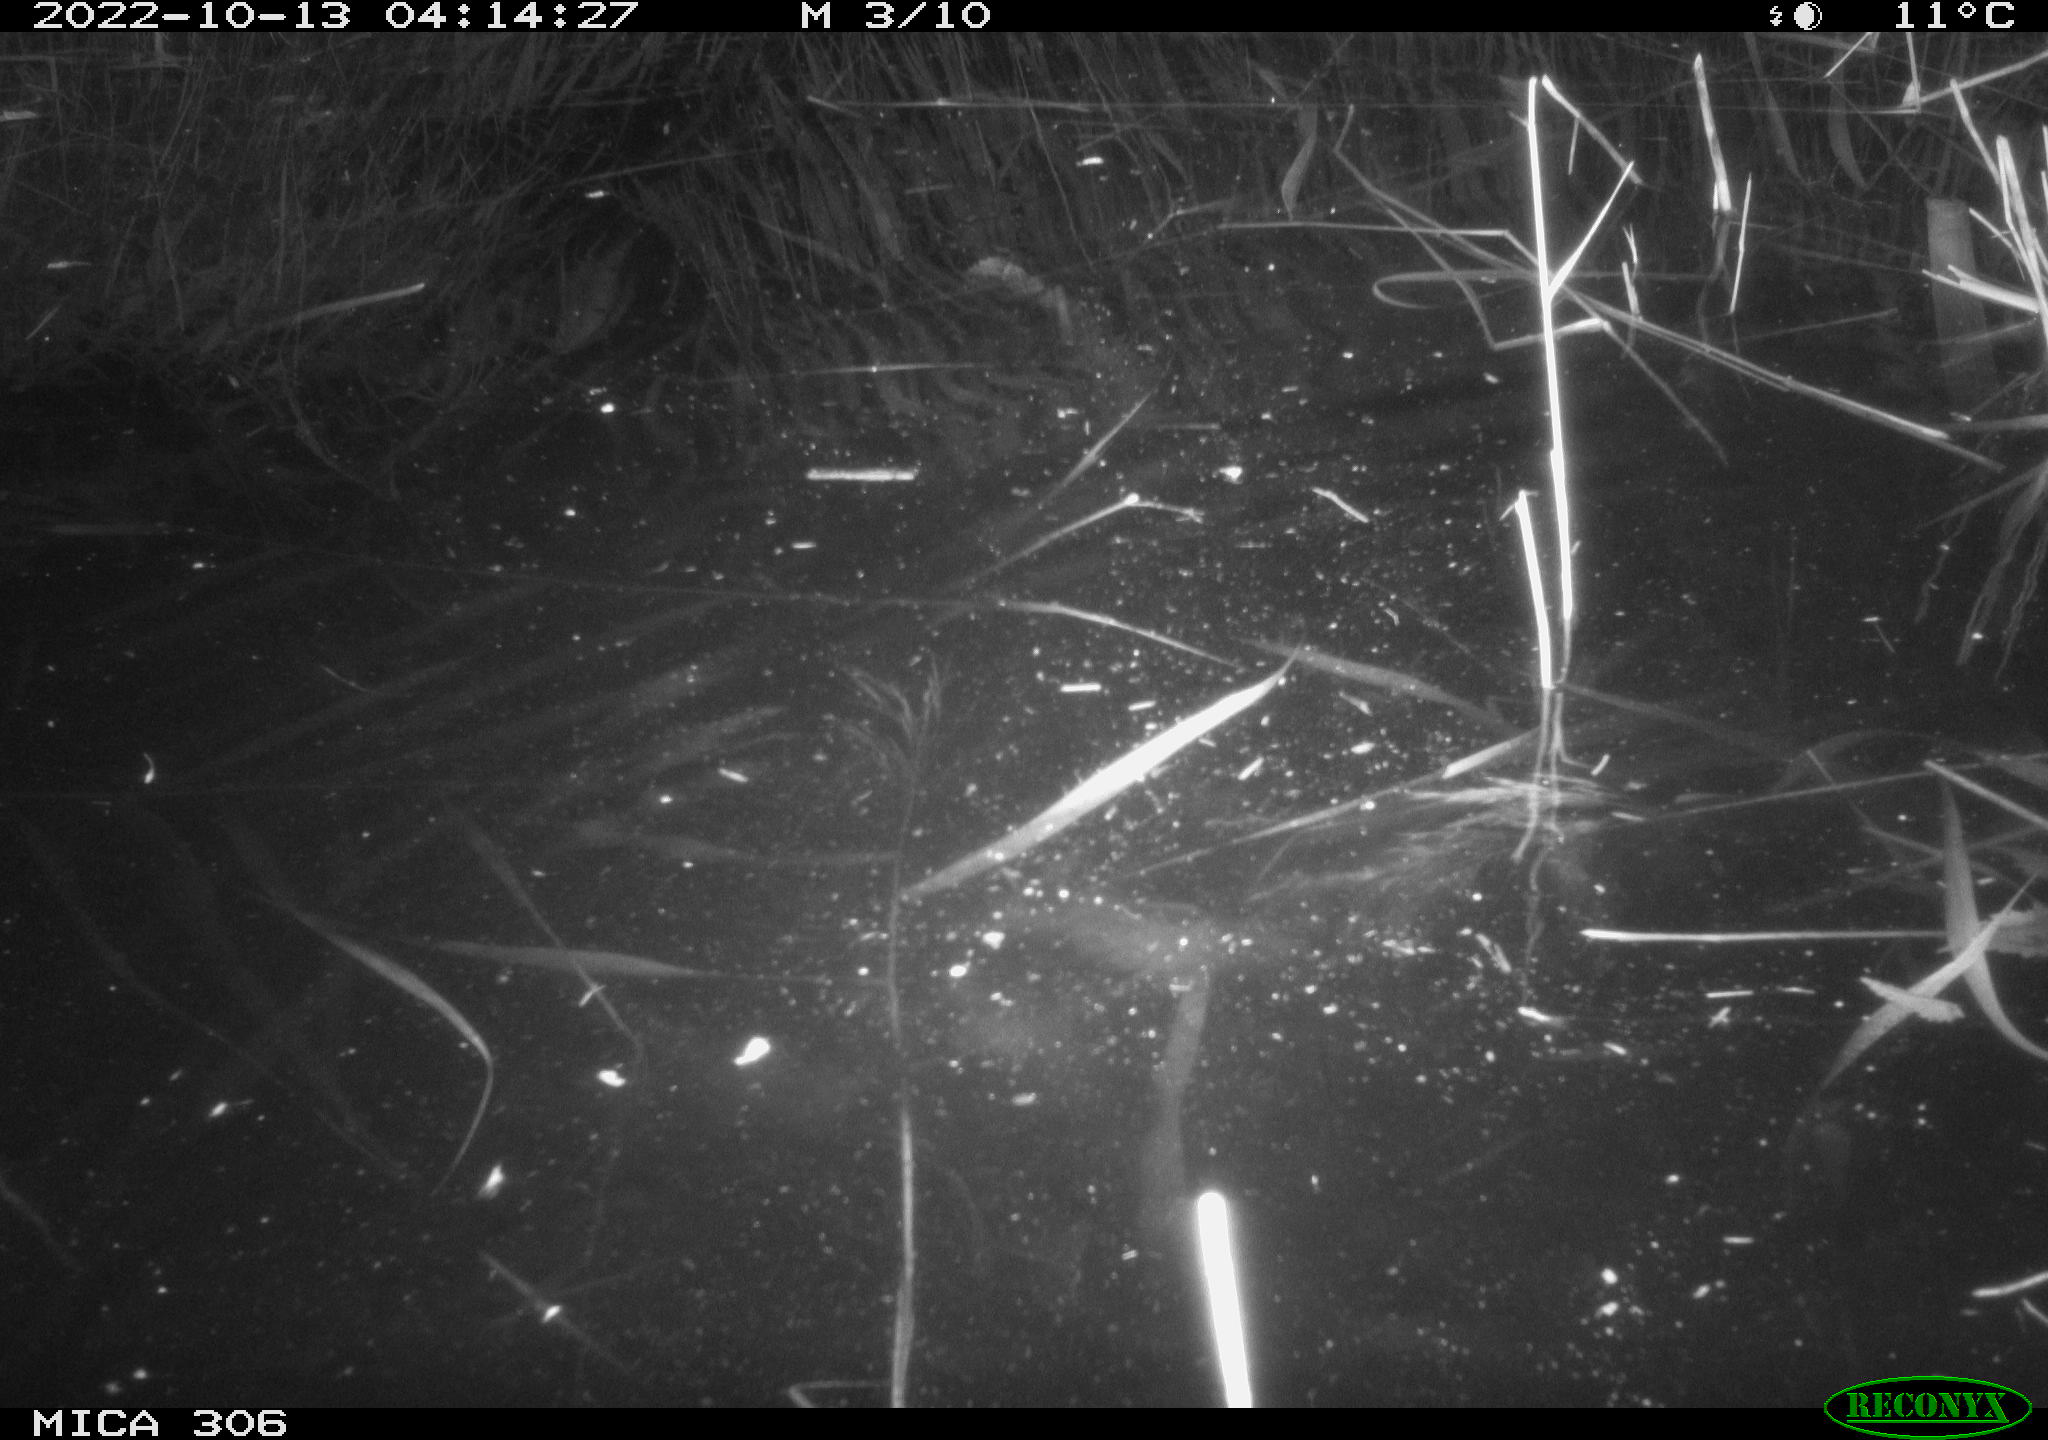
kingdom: Animalia
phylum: Chordata
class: Mammalia
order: Rodentia
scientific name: Rodentia
